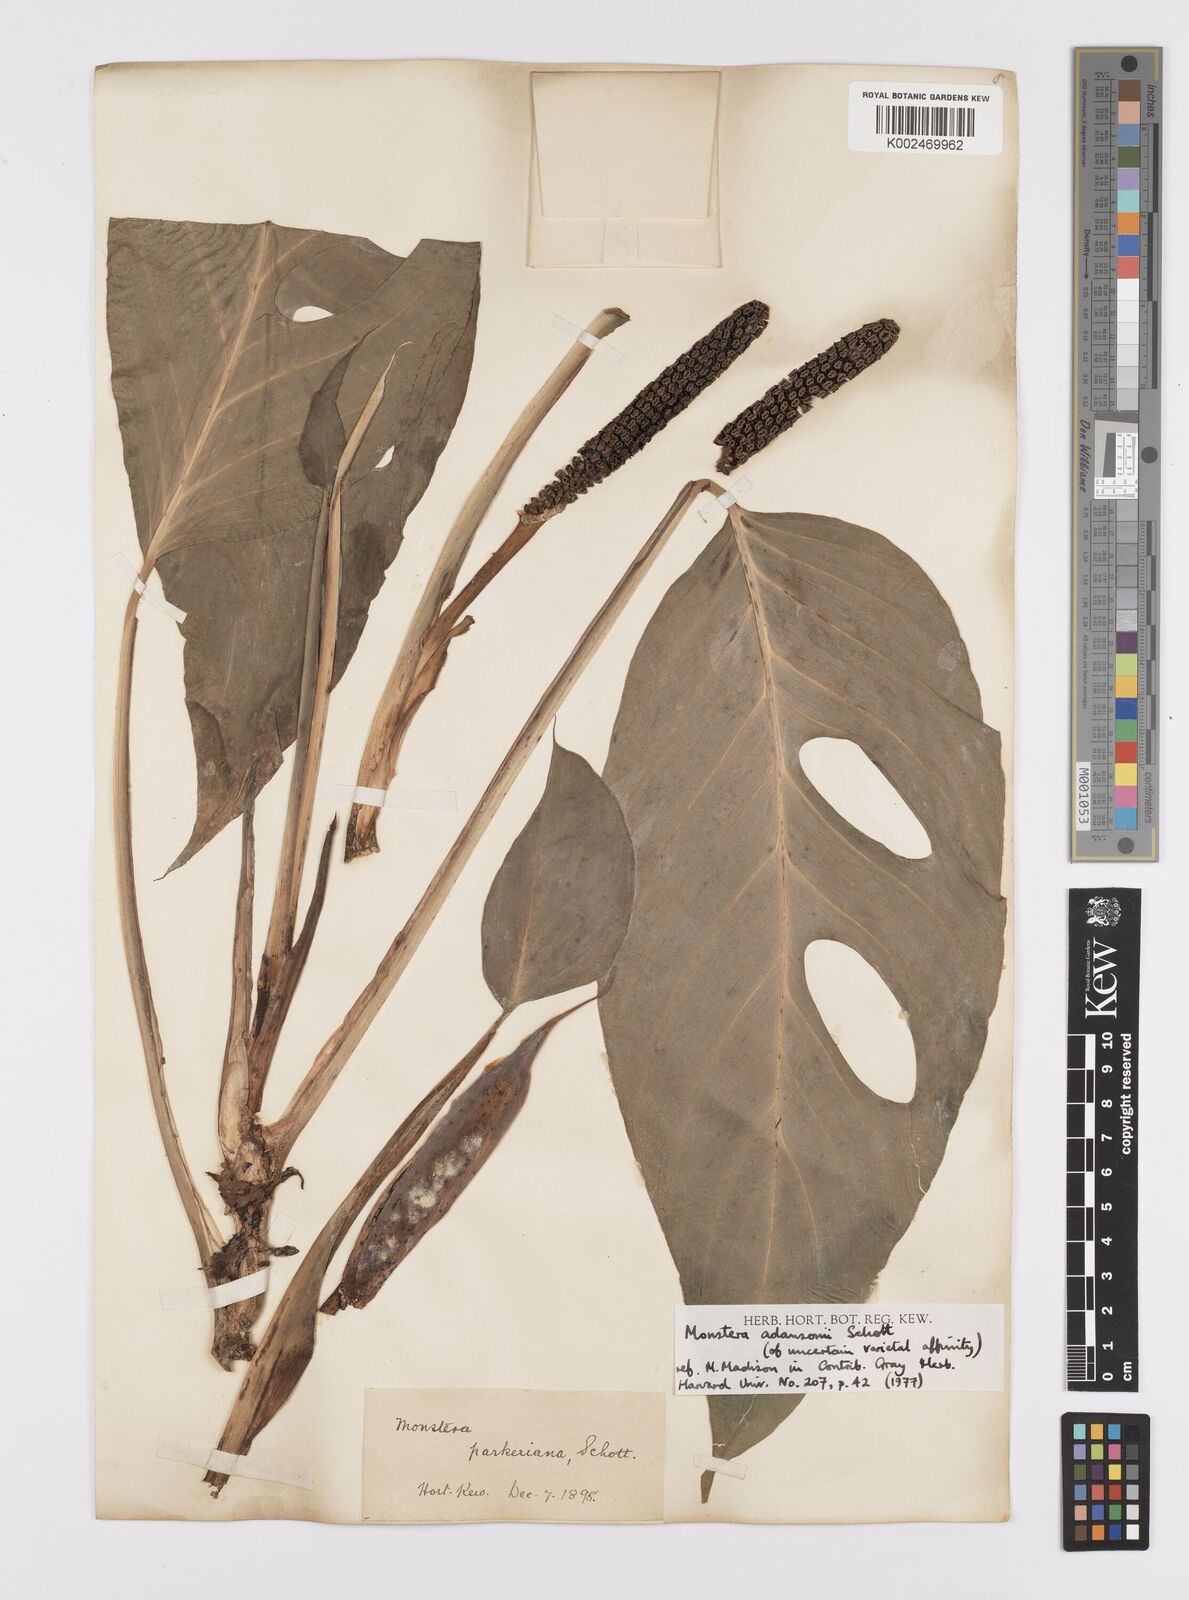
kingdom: Plantae
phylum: Tracheophyta
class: Liliopsida
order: Alismatales
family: Araceae
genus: Monstera
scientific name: Monstera adansonii
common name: Tarovine
